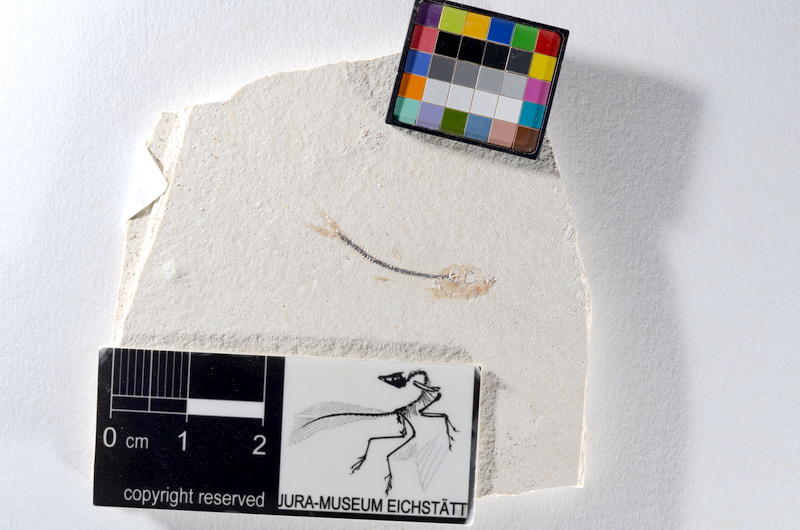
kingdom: Animalia
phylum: Chordata
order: Salmoniformes
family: Orthogonikleithridae
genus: Orthogonikleithrus
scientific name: Orthogonikleithrus hoelli
